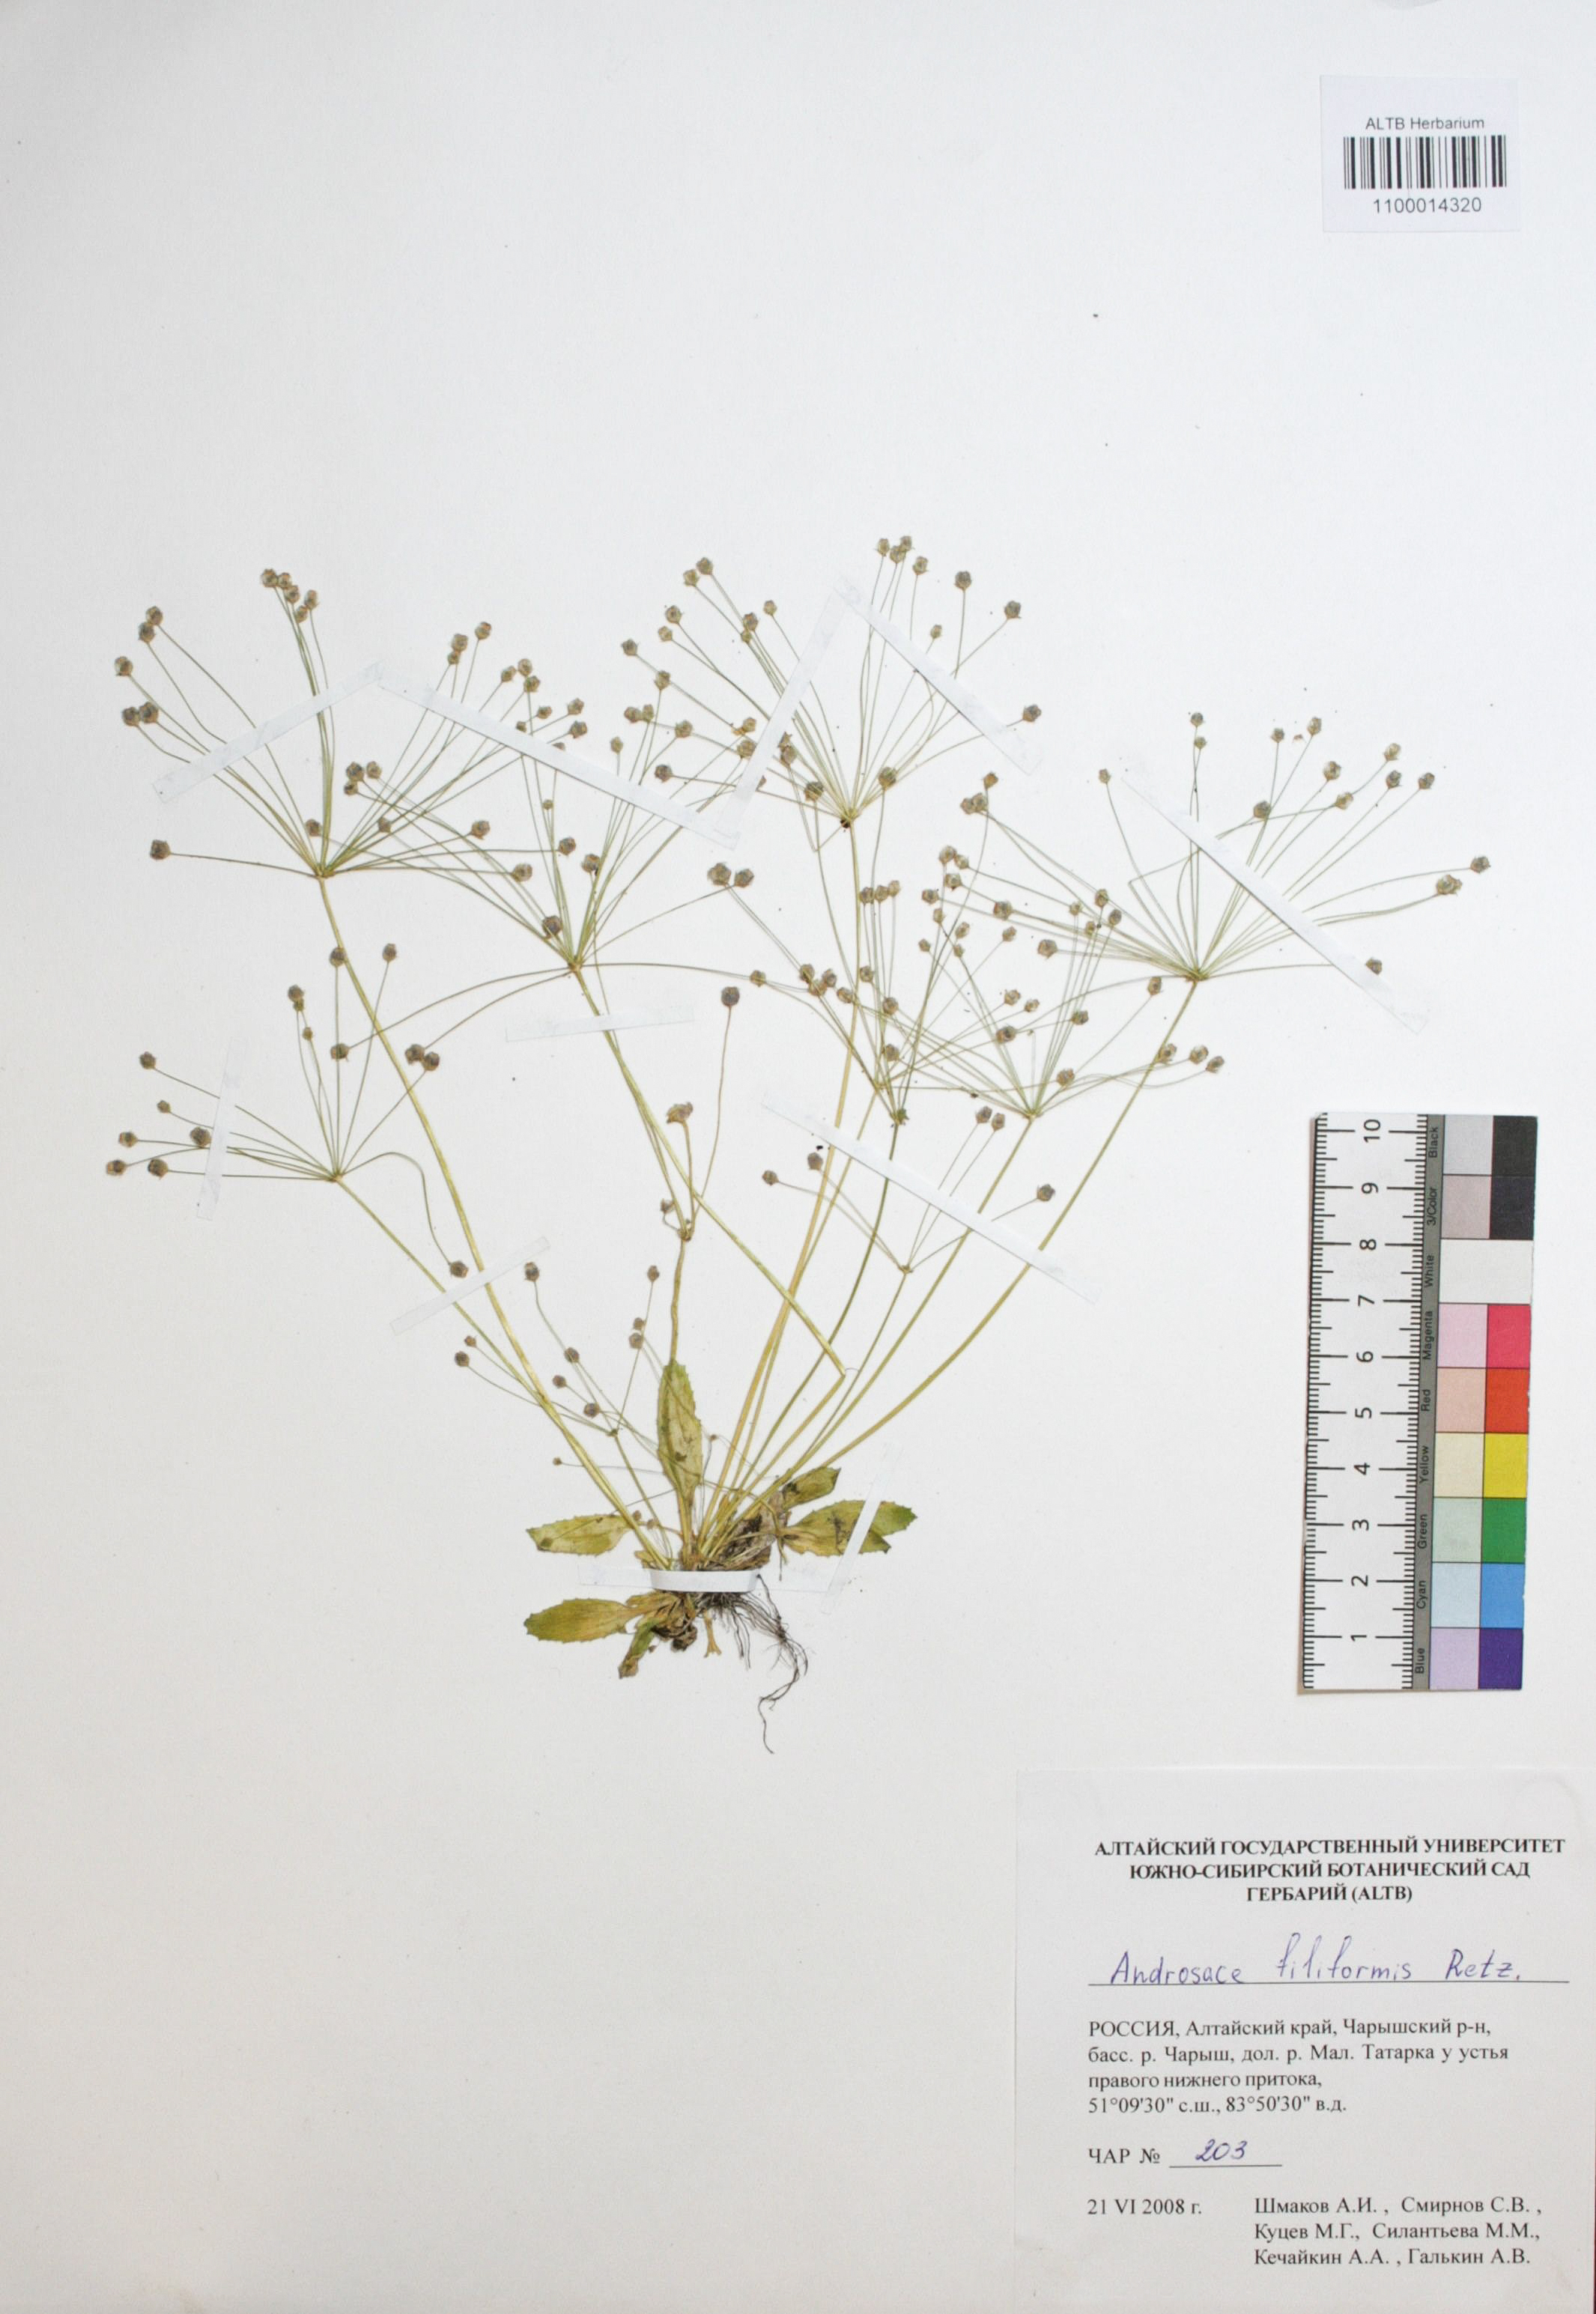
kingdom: Plantae
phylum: Tracheophyta
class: Magnoliopsida
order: Ericales
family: Primulaceae
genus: Androsace
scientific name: Androsace filiformis
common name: Filiform rock jasmine
